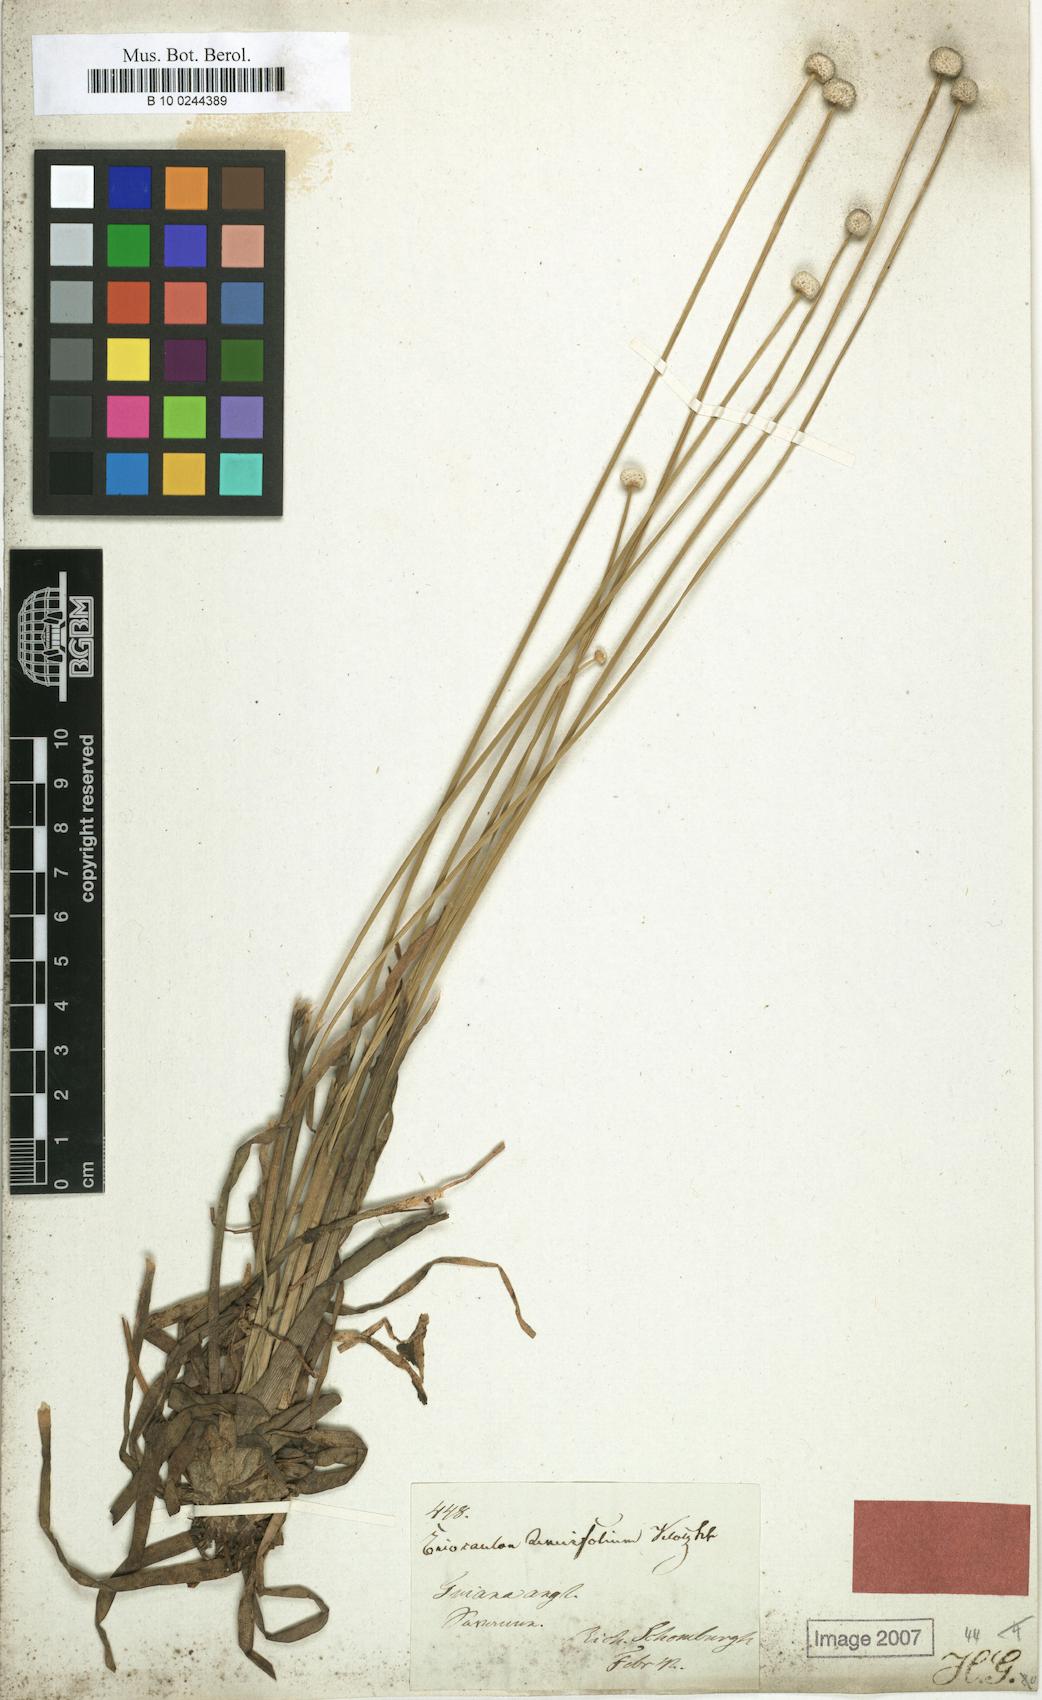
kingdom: Plantae
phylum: Tracheophyta
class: Liliopsida
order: Poales
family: Eriocaulaceae
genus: Eriocaulon
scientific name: Eriocaulon tenuifolium
